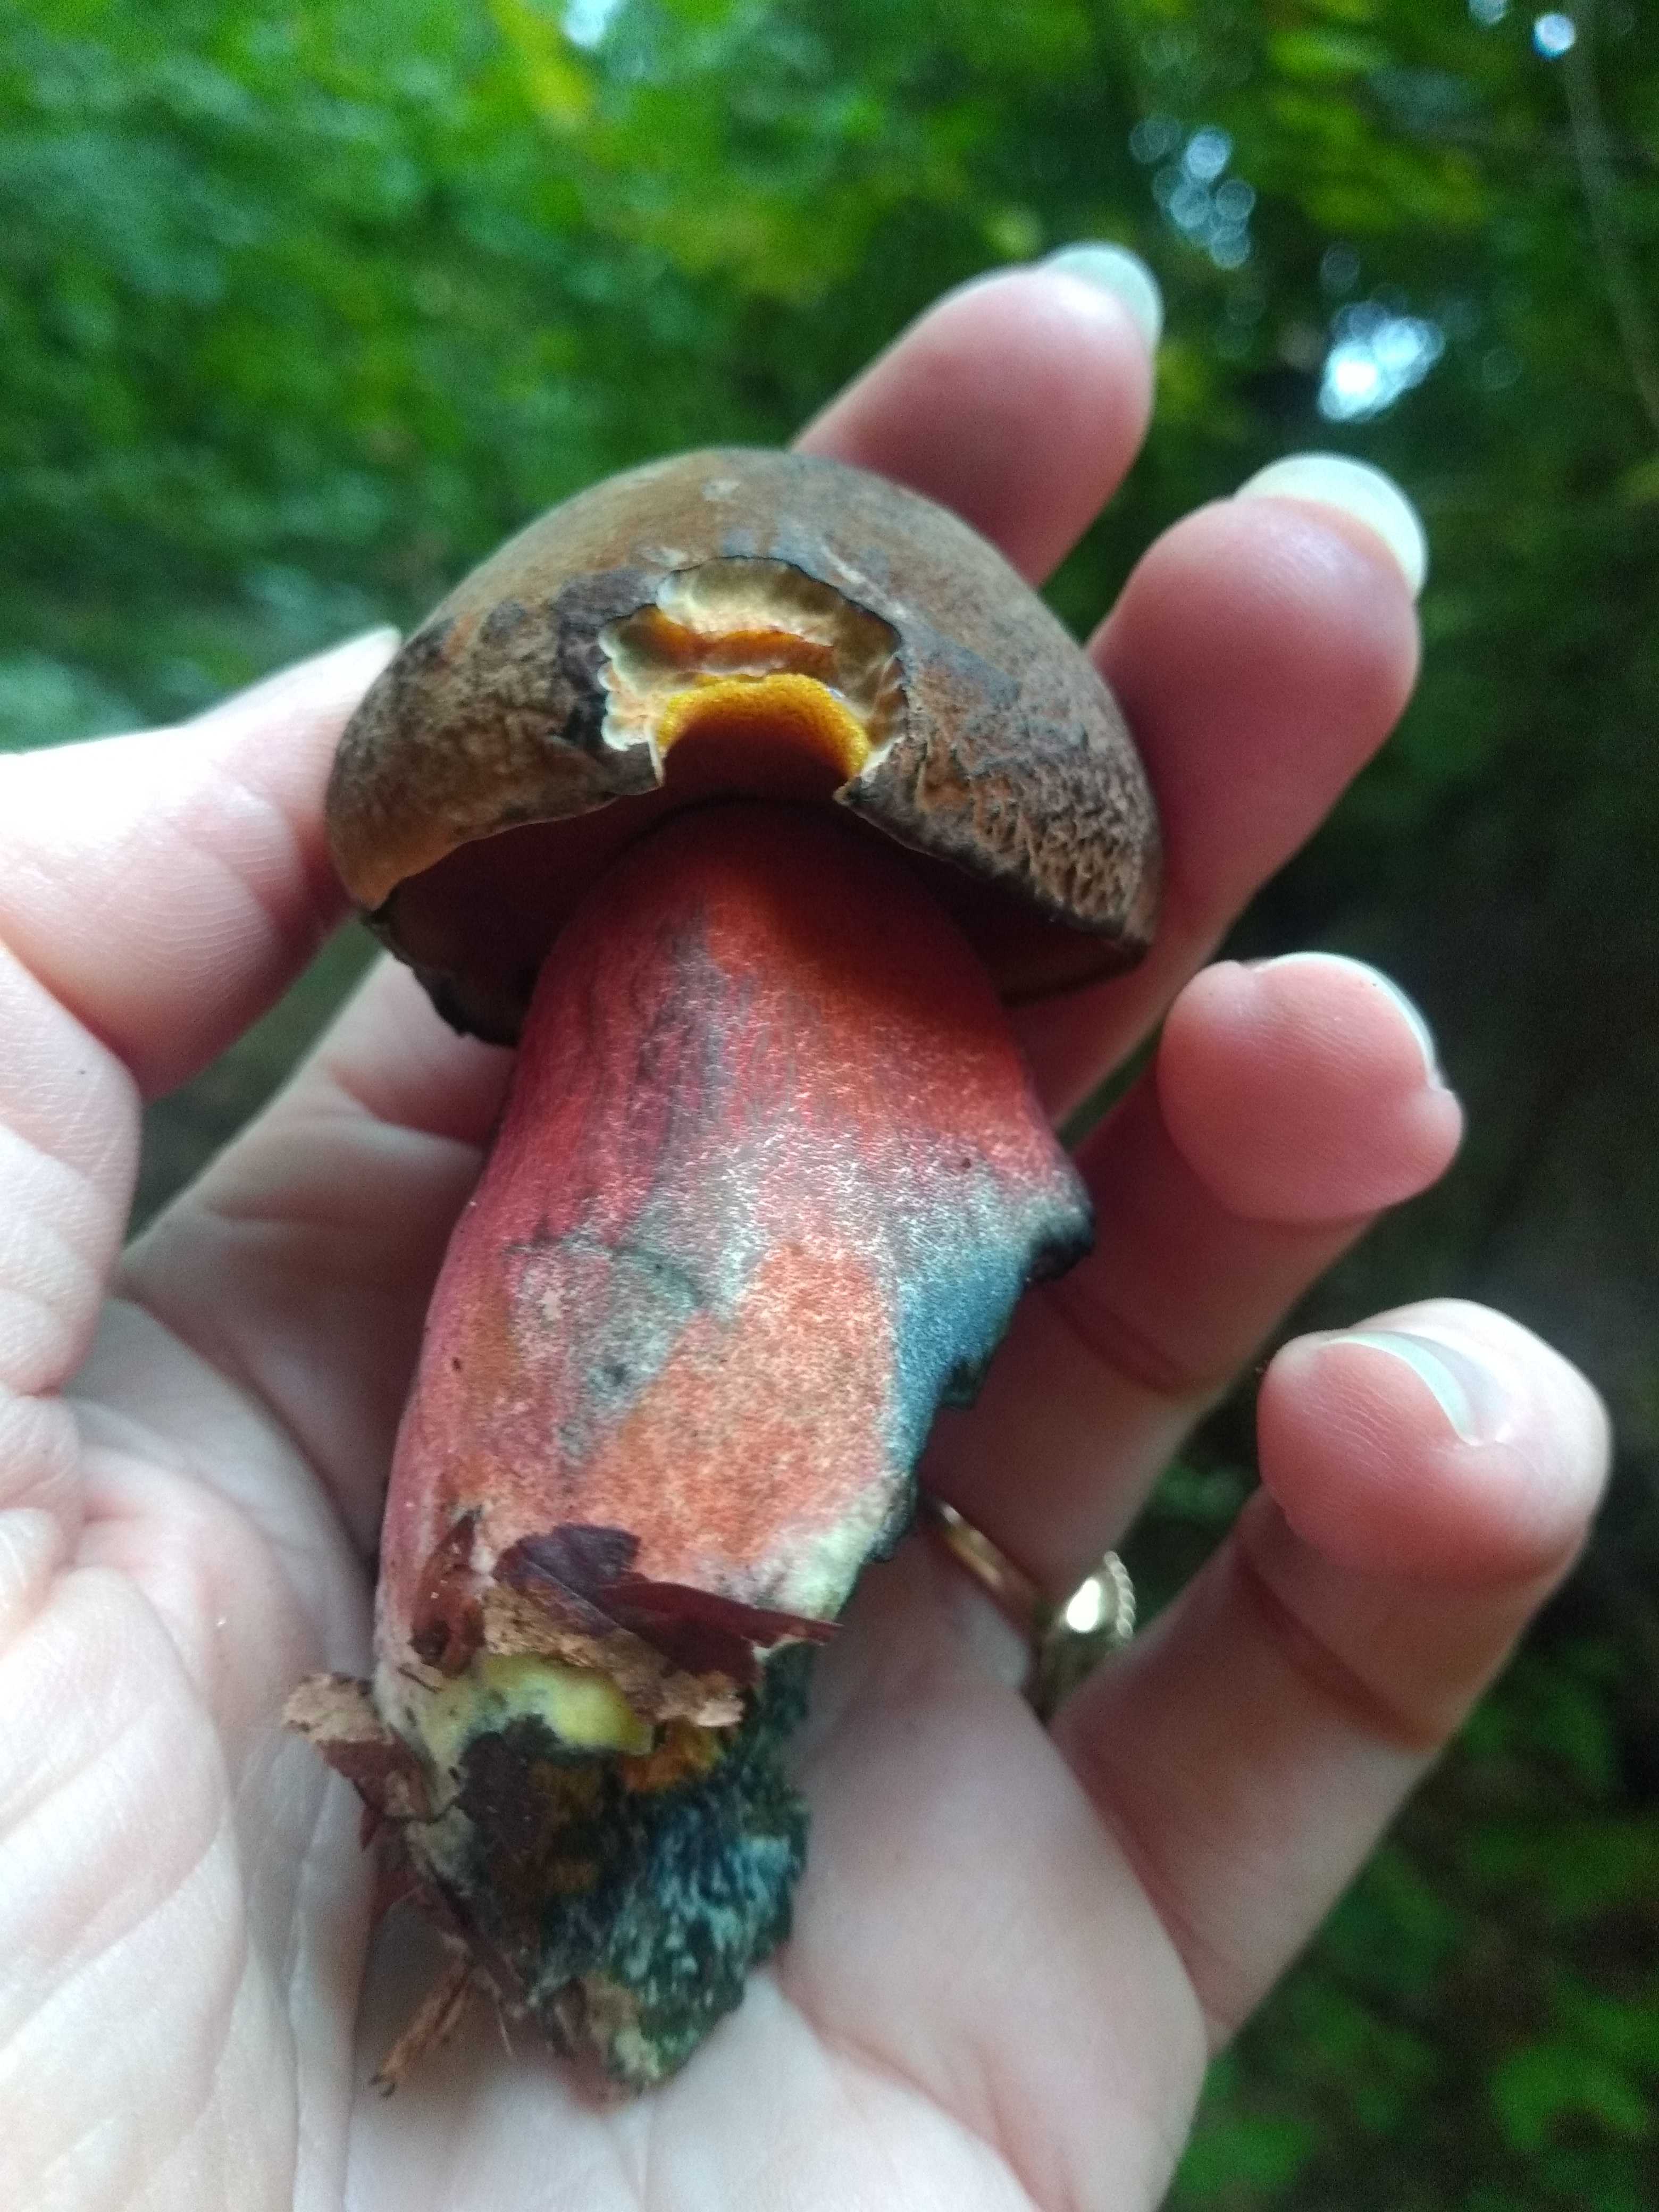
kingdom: Fungi
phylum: Basidiomycota
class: Agaricomycetes
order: Boletales
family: Boletaceae
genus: Neoboletus
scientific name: Neoboletus erythropus
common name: punktstokket indigorørhat
